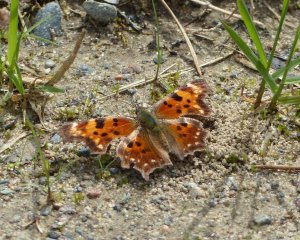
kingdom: Animalia
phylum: Arthropoda
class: Insecta
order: Lepidoptera
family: Nymphalidae
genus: Polygonia
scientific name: Polygonia faunus
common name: Green Comma
